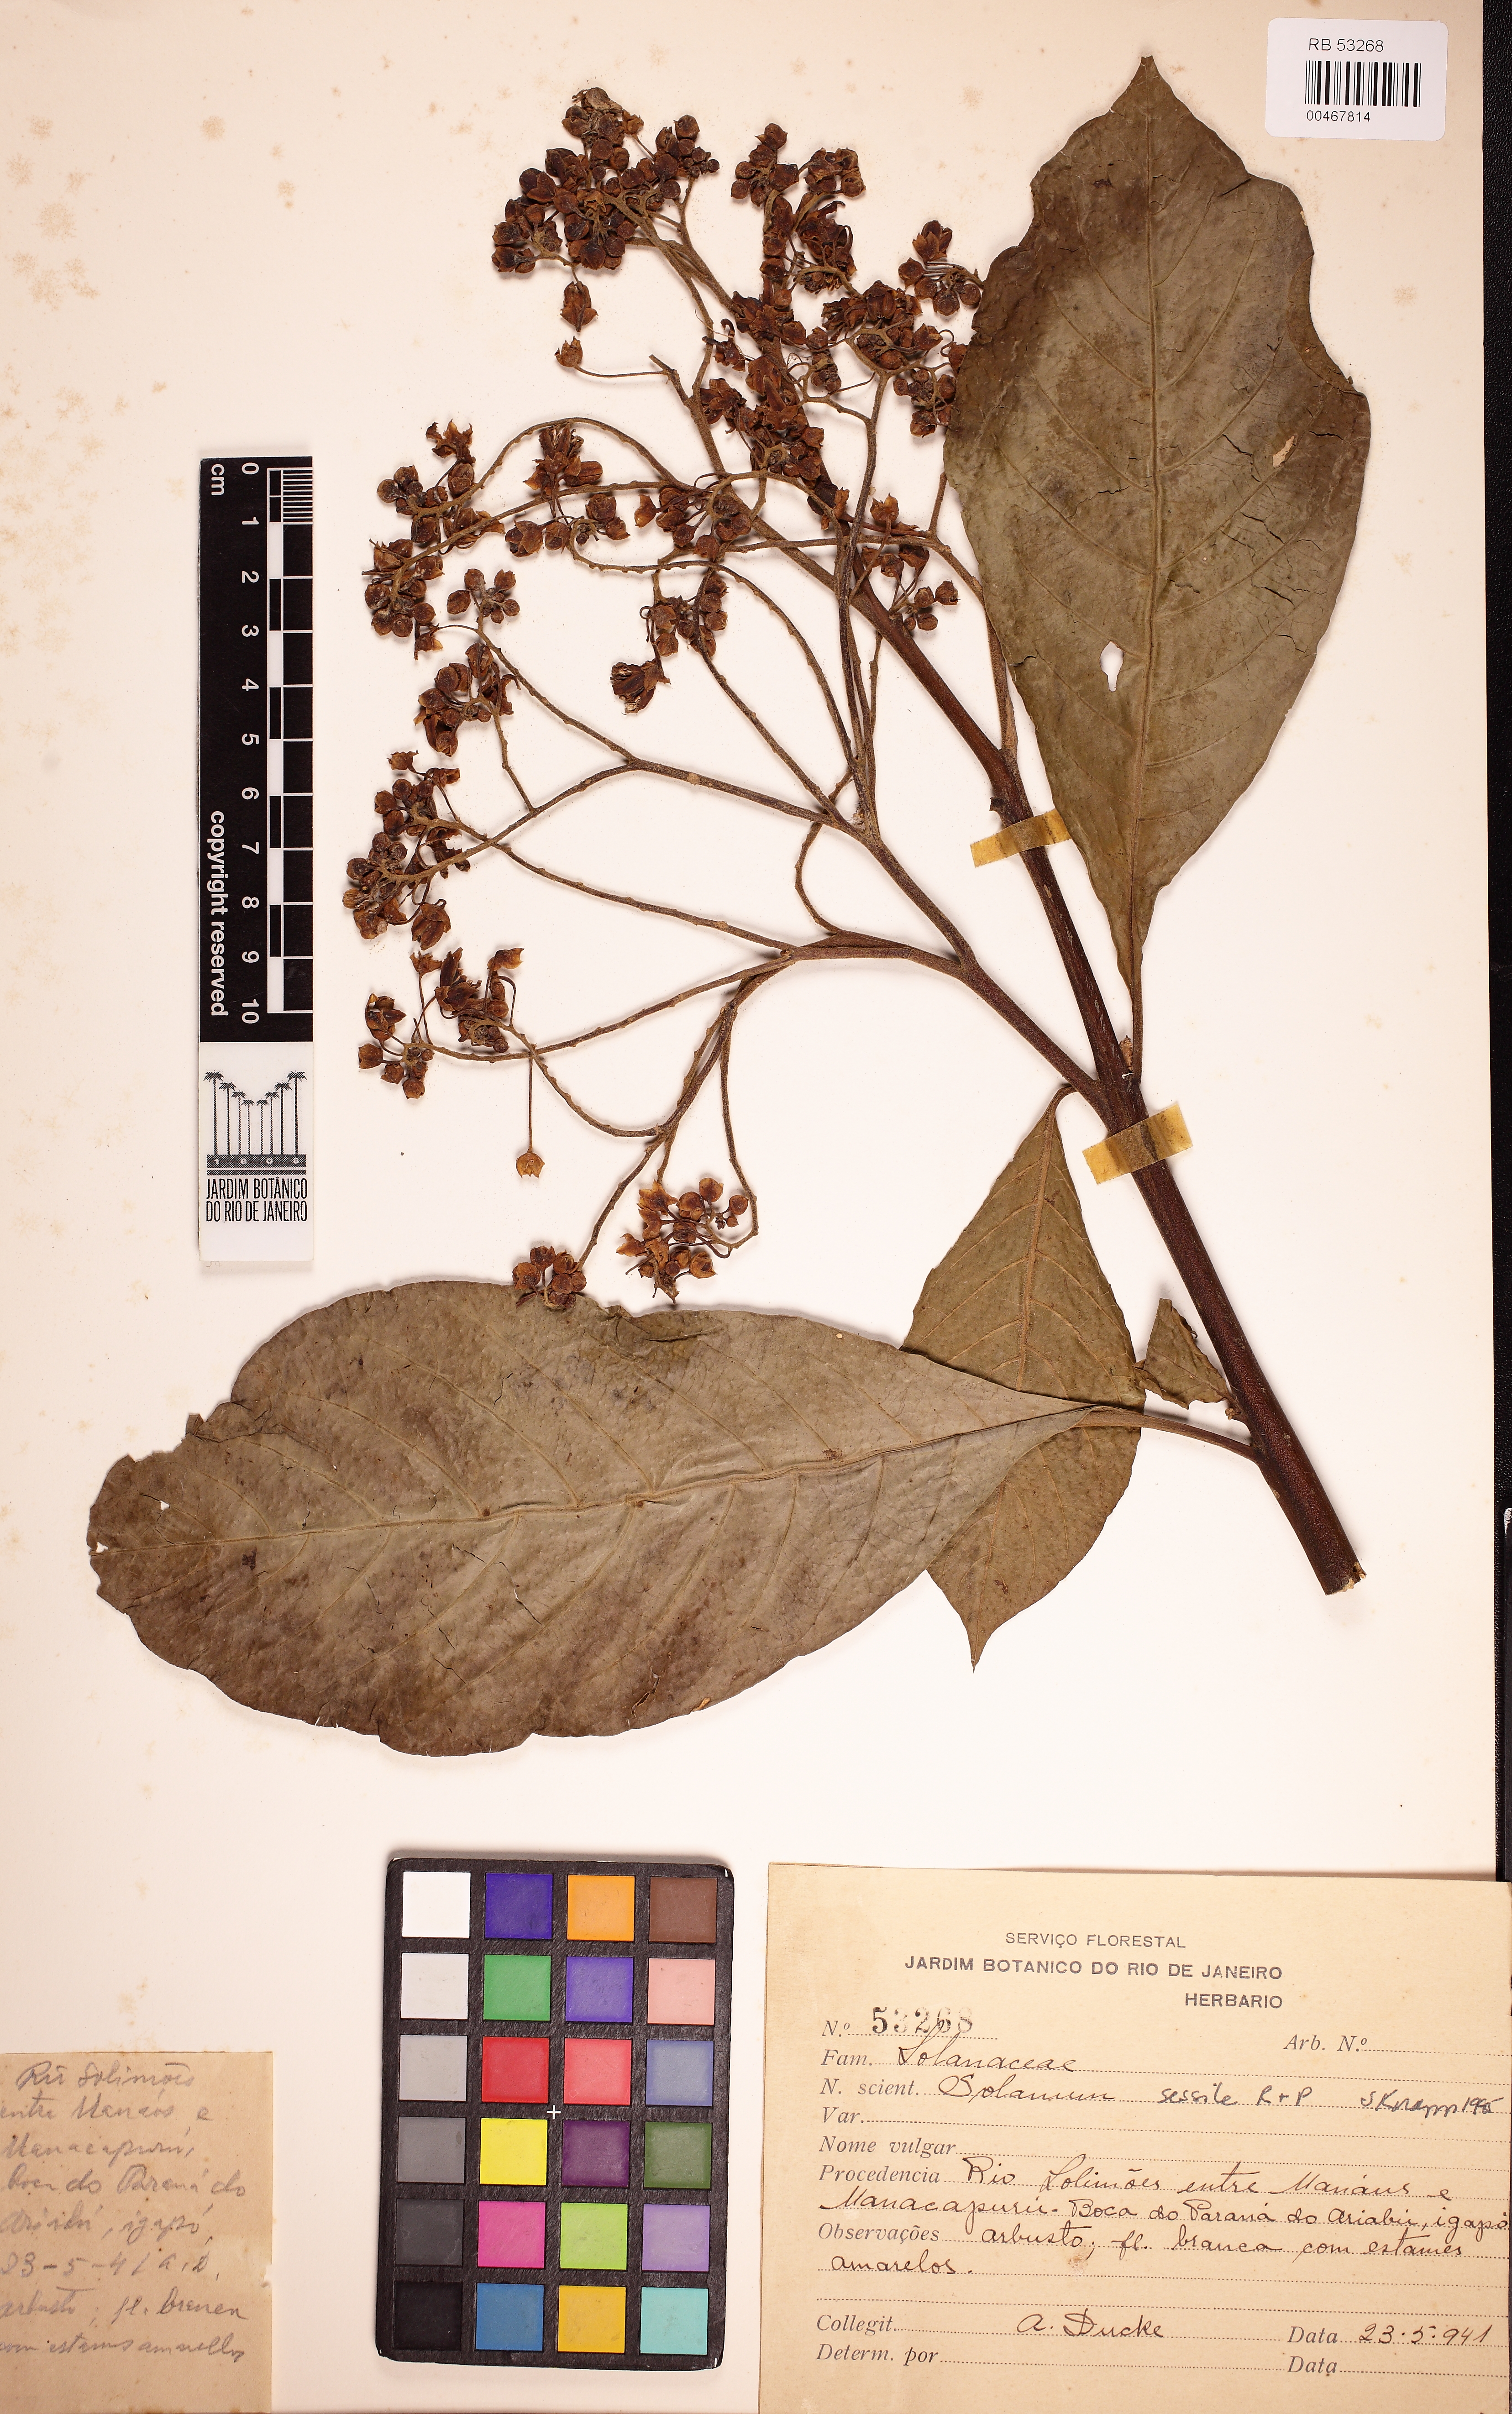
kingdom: Plantae
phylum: Tracheophyta
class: Magnoliopsida
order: Solanales
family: Solanaceae
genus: Solanum
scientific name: Solanum sessile
